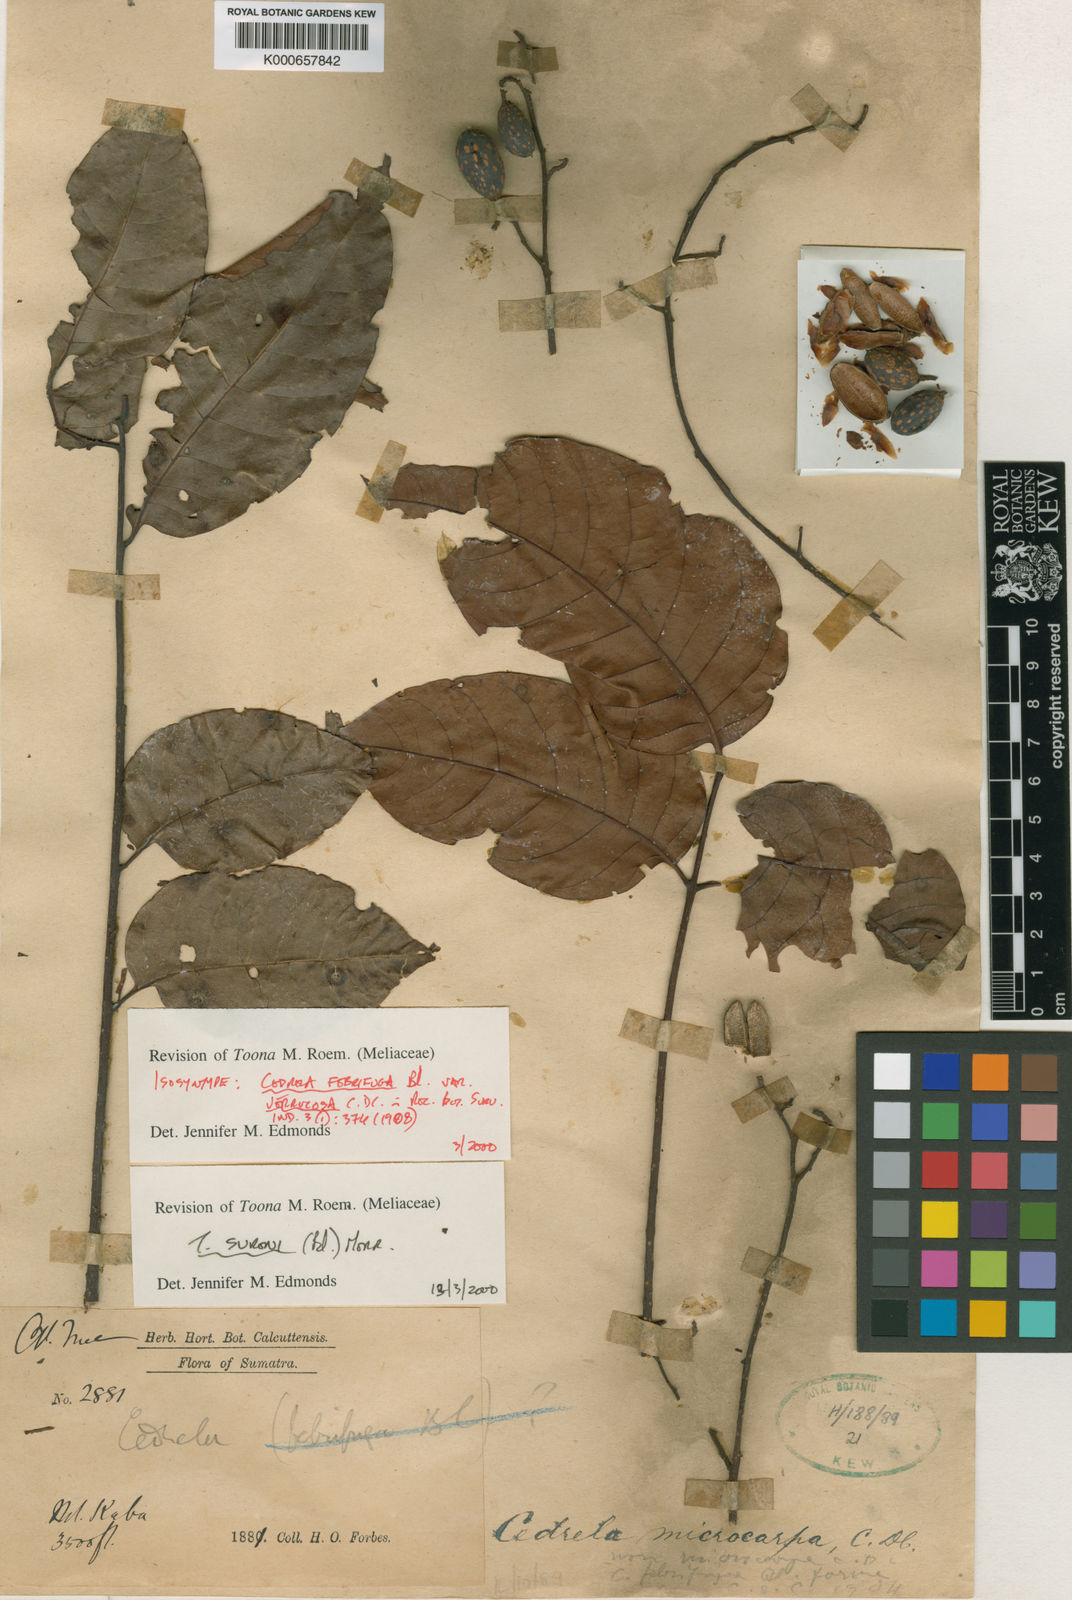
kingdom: Plantae
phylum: Tracheophyta
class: Magnoliopsida
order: Sapindales
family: Meliaceae
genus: Toona
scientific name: Toona sureni
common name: Red cedar
